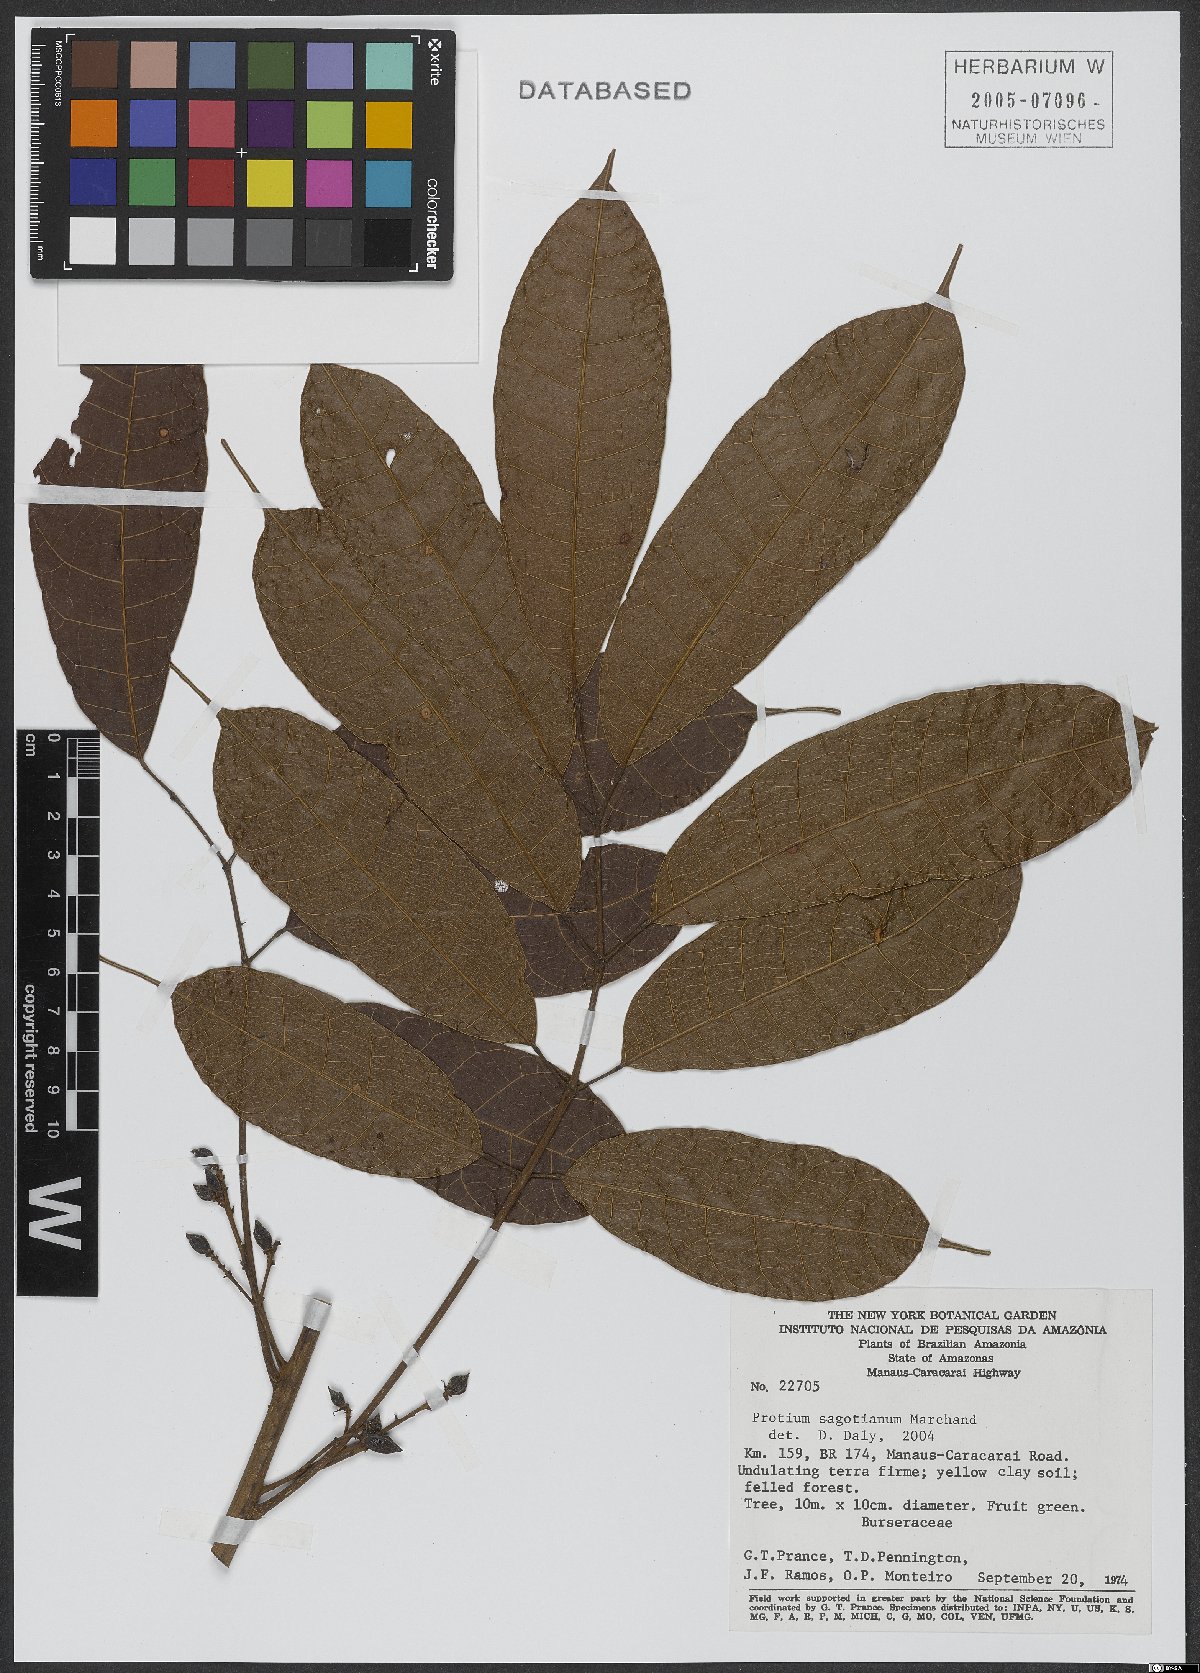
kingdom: Plantae
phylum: Tracheophyta
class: Magnoliopsida
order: Sapindales
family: Burseraceae
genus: Protium
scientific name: Protium sagotianum
